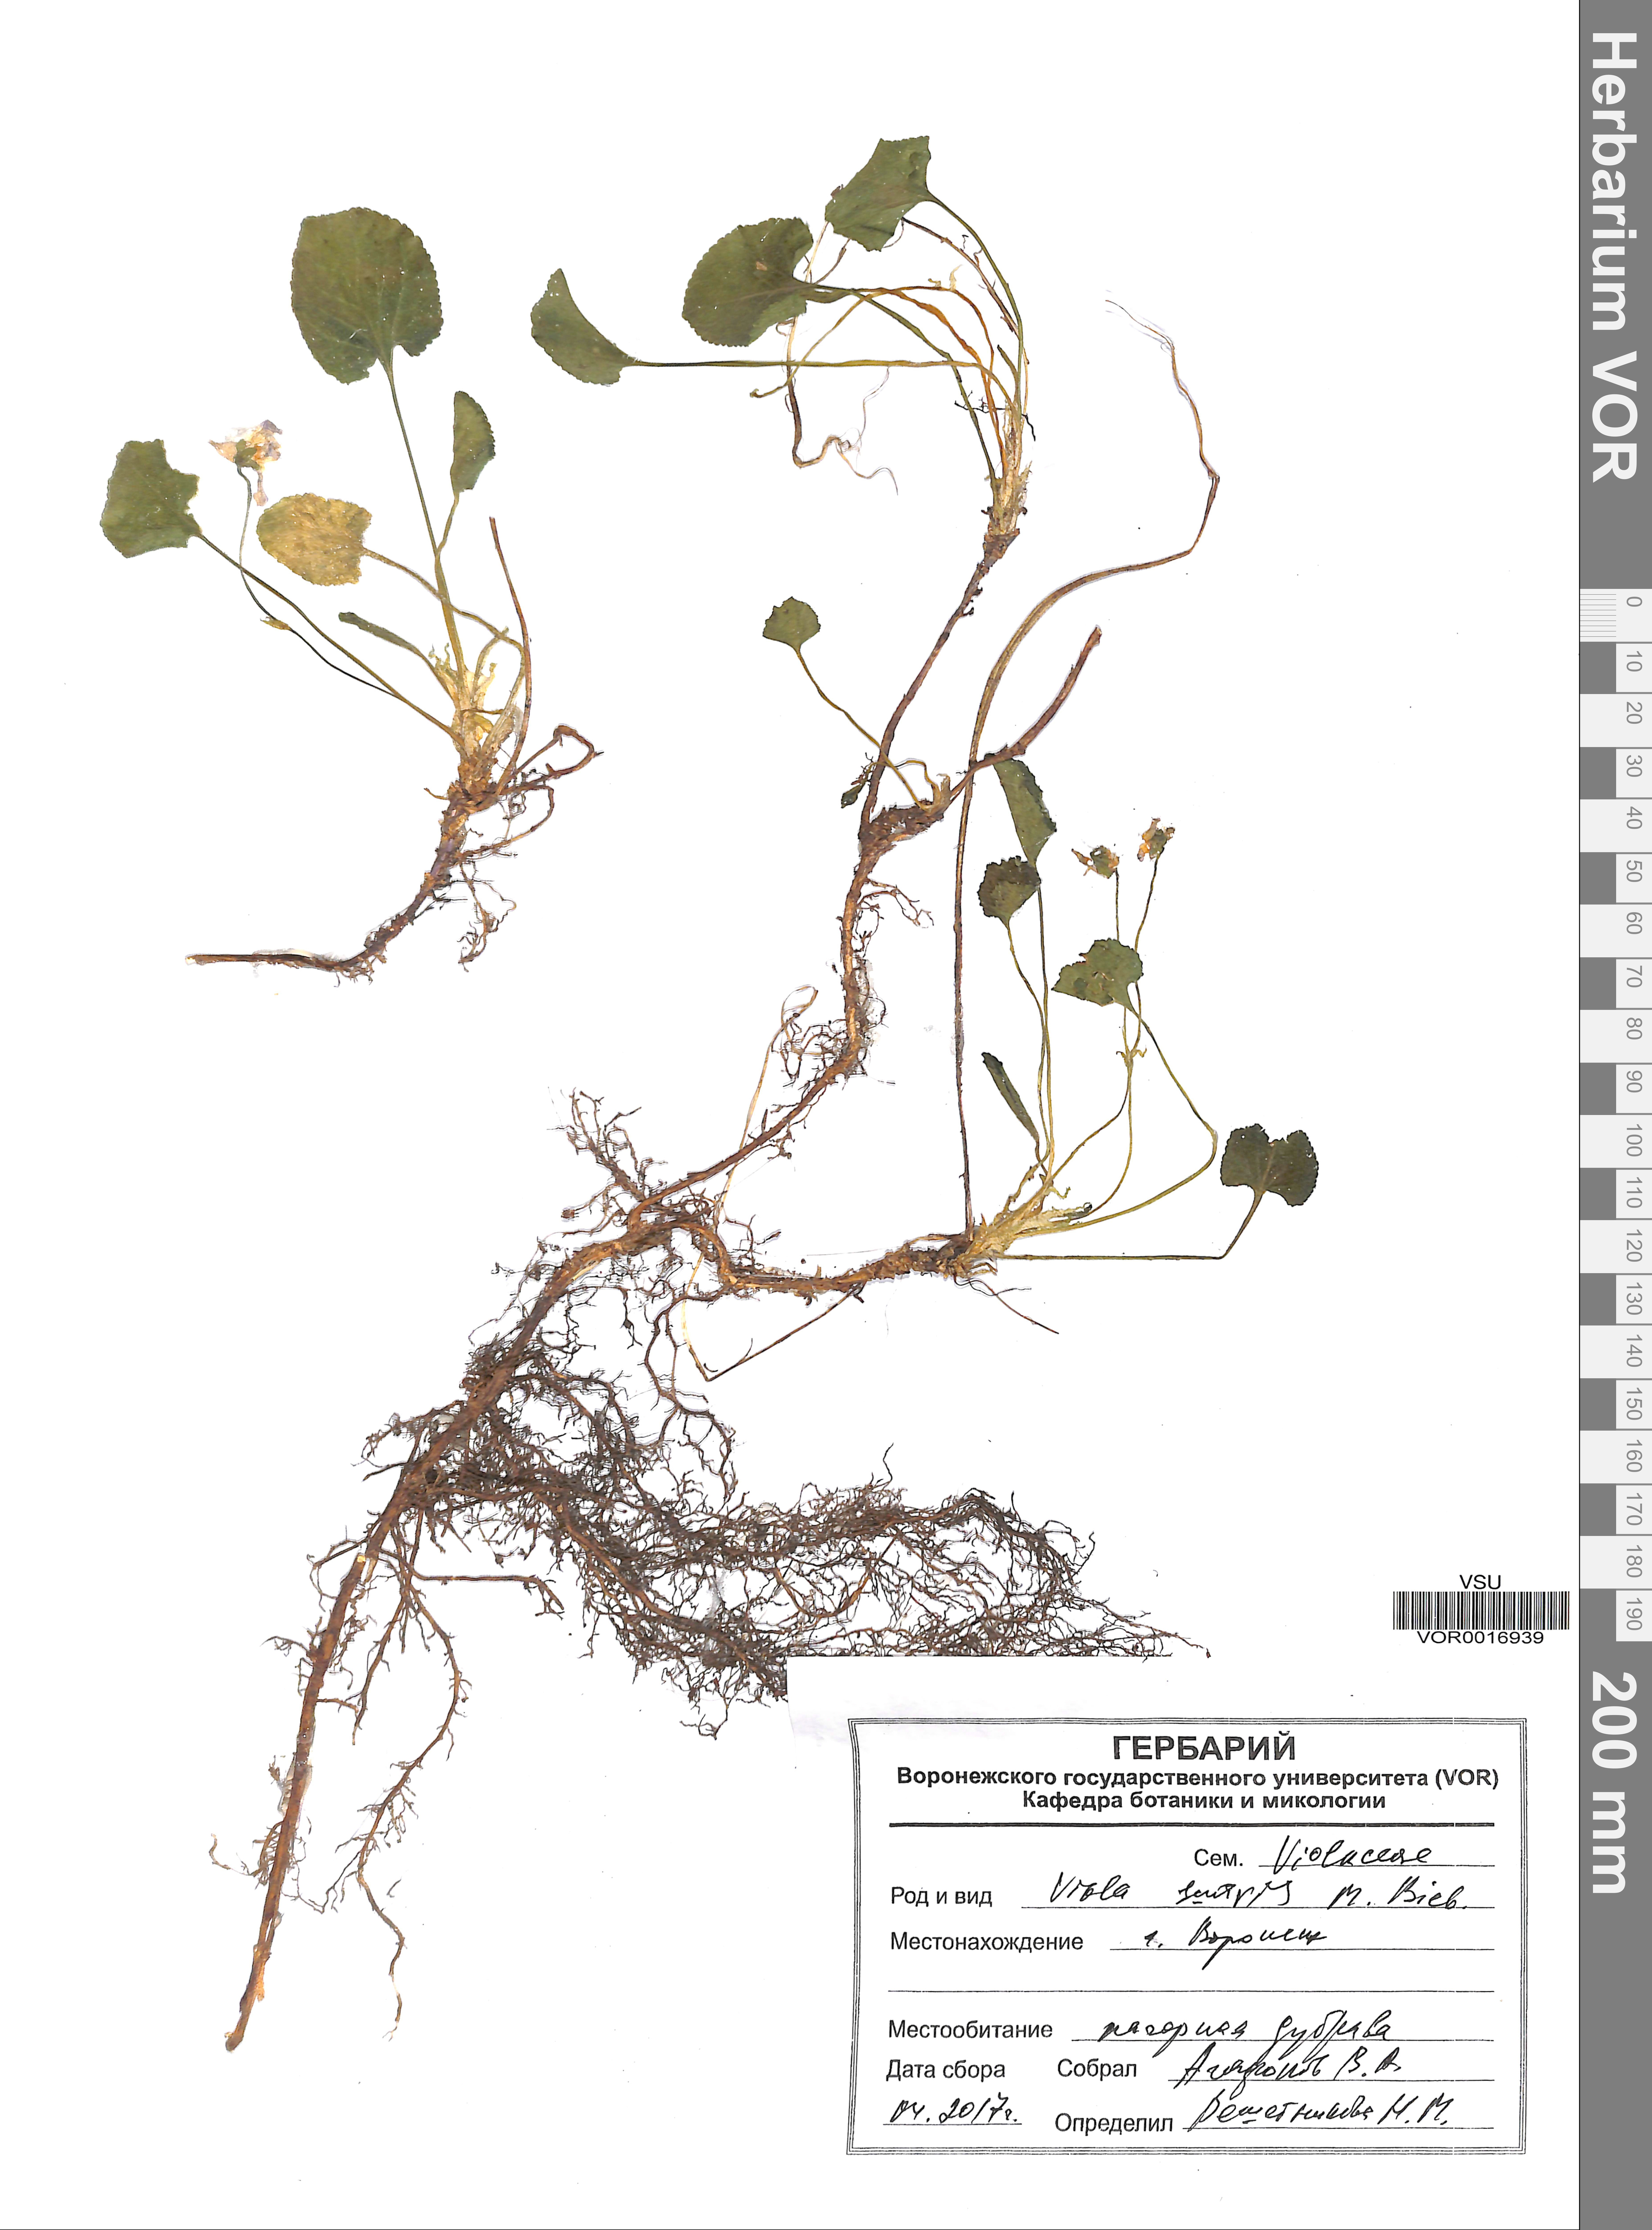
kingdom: Plantae
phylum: Tracheophyta
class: Magnoliopsida
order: Malpighiales
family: Violaceae
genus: Viola
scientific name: Viola suavis
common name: Russian violet
